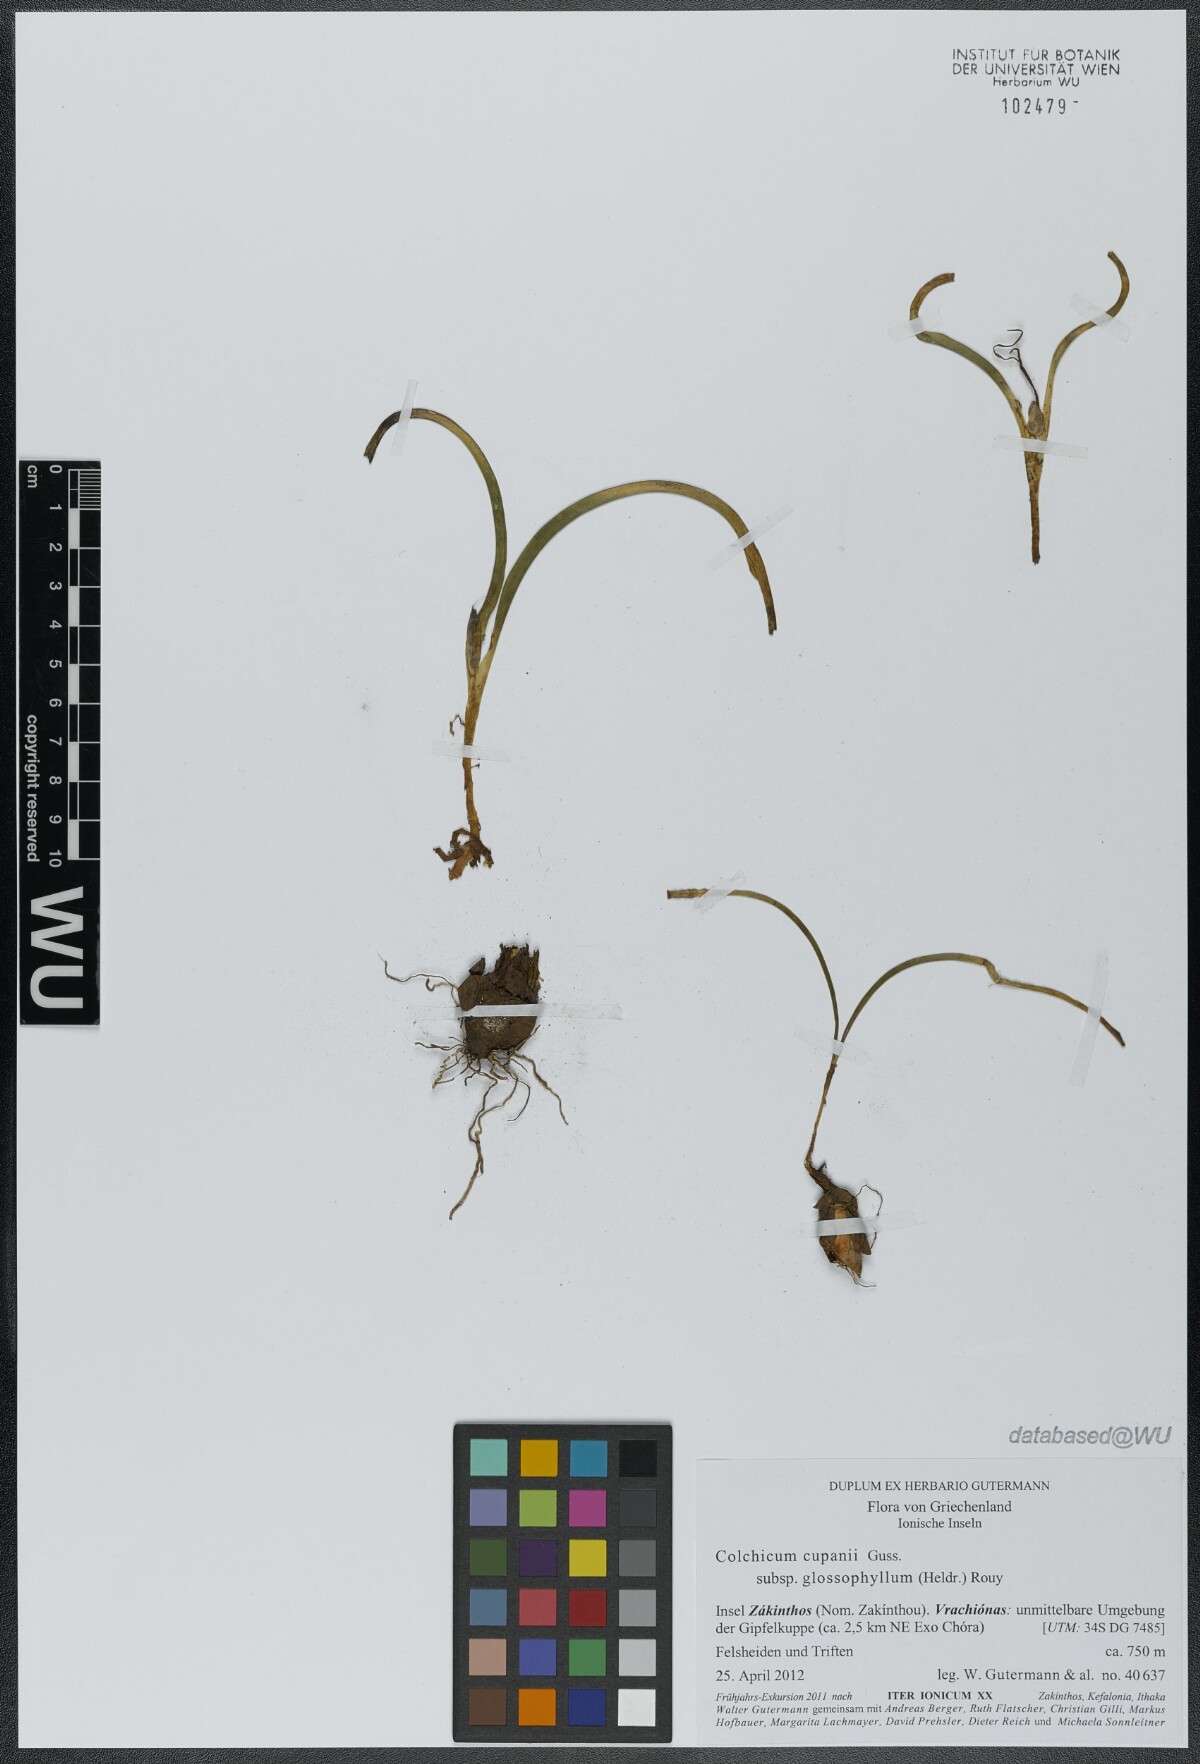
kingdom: Plantae
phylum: Tracheophyta
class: Liliopsida
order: Liliales
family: Colchicaceae
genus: Colchicum
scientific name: Colchicum cupanii
